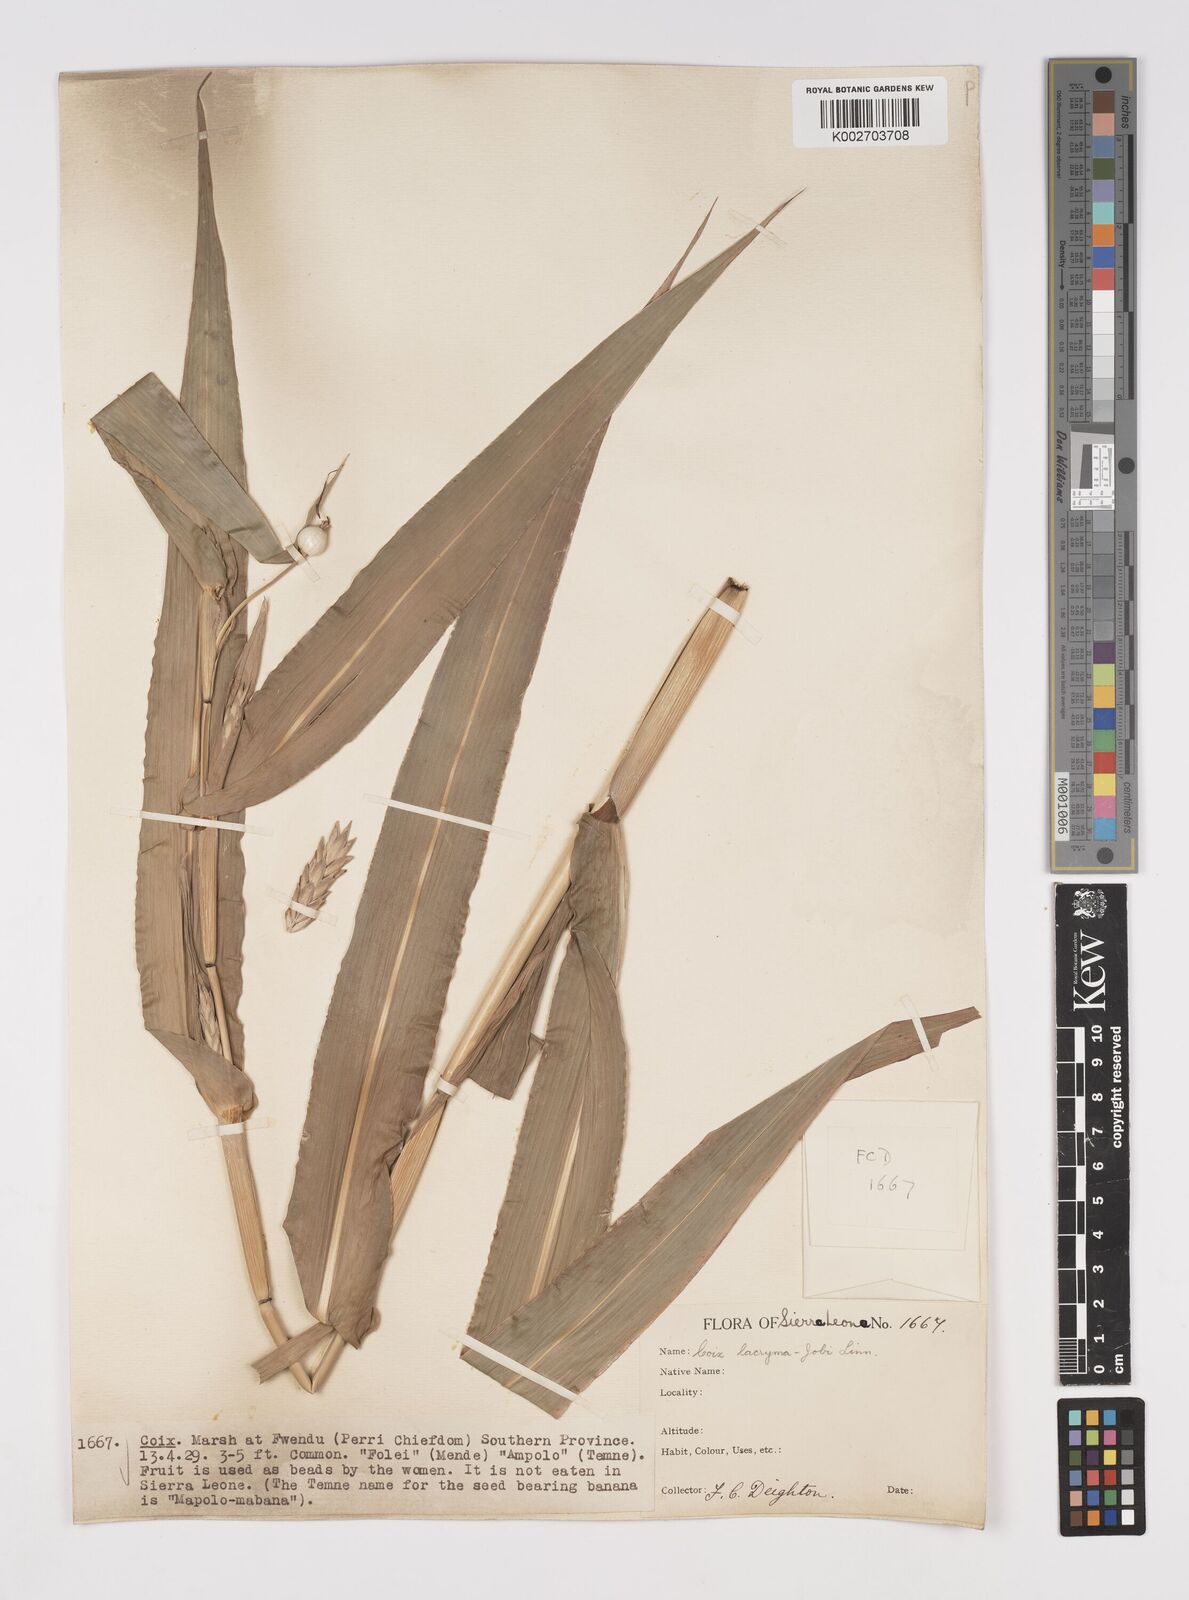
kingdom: Plantae
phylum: Tracheophyta
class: Liliopsida
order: Poales
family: Poaceae
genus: Coix
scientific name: Coix lacryma-jobi
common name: Job's tears
